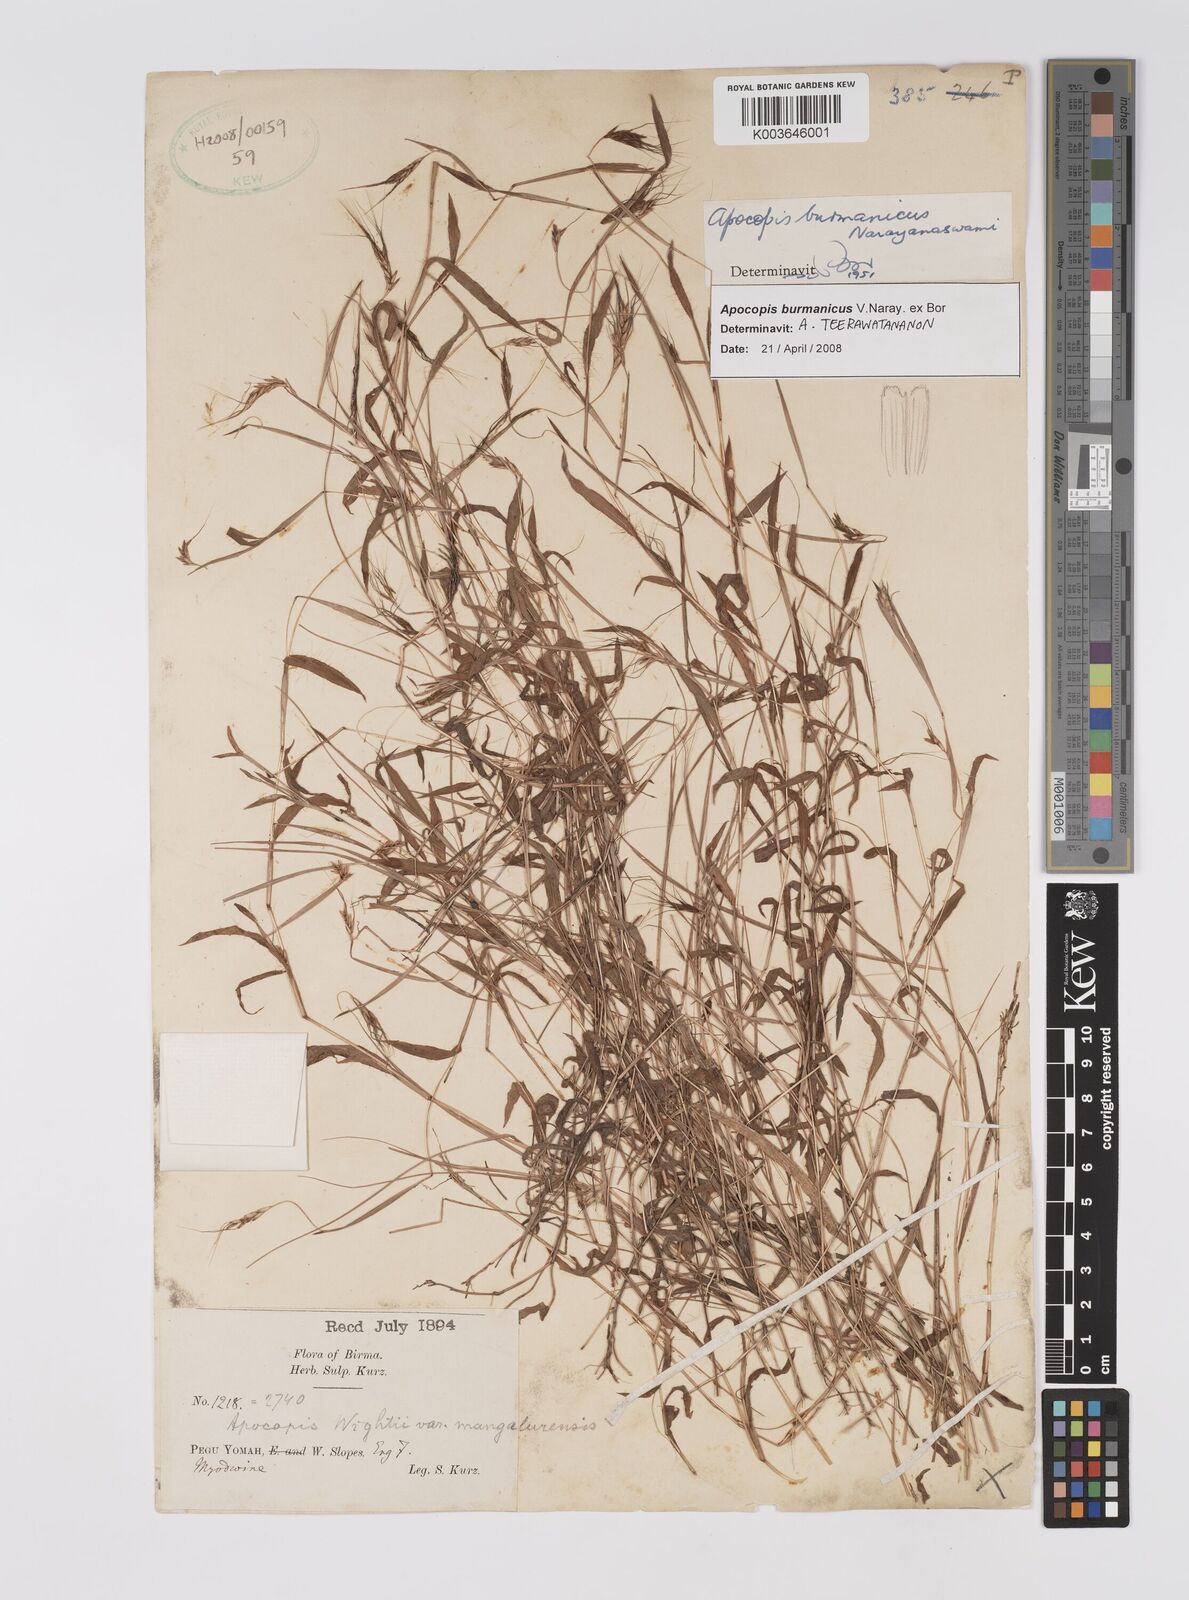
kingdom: Plantae
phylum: Tracheophyta
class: Liliopsida
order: Poales
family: Poaceae
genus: Apocopis
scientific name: Apocopis burmanicus
